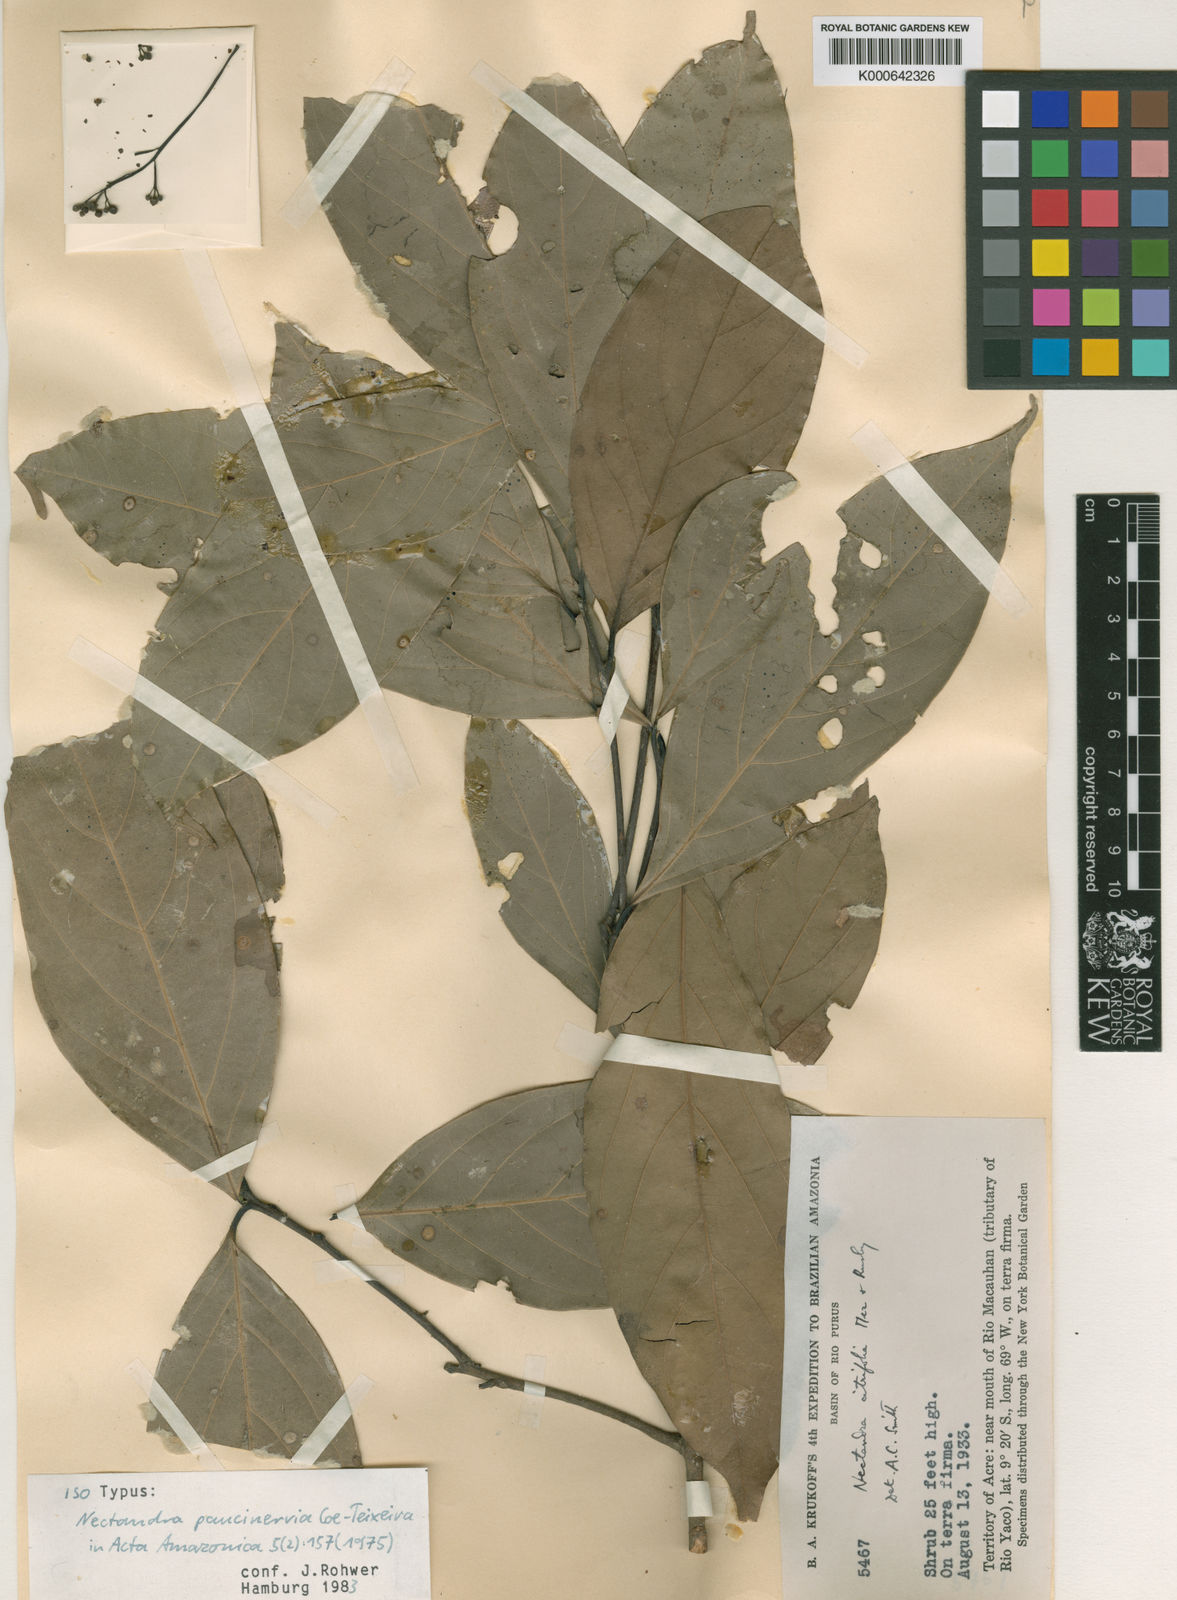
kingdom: Plantae
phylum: Tracheophyta
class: Magnoliopsida
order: Laurales
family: Lauraceae
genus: Nectandra
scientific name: Nectandra paucinervia
